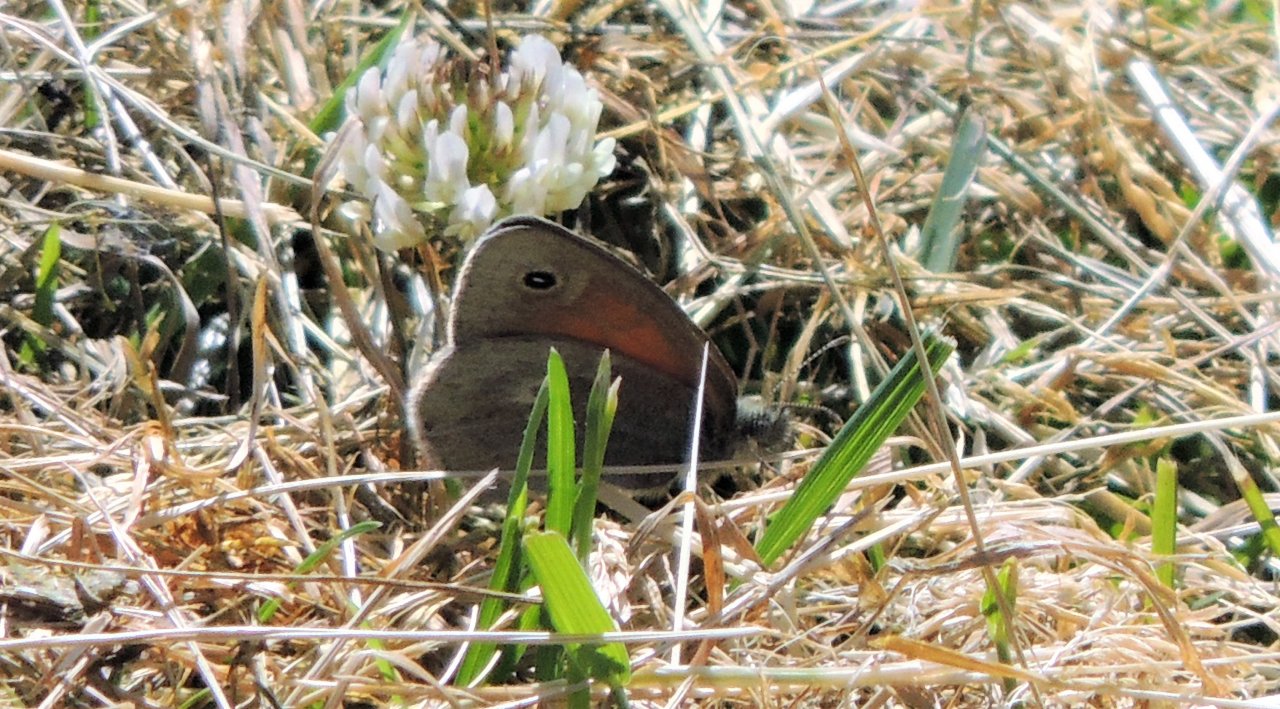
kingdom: Animalia
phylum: Arthropoda
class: Insecta
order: Lepidoptera
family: Nymphalidae
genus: Coenonympha
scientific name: Coenonympha tullia
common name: Large Heath
